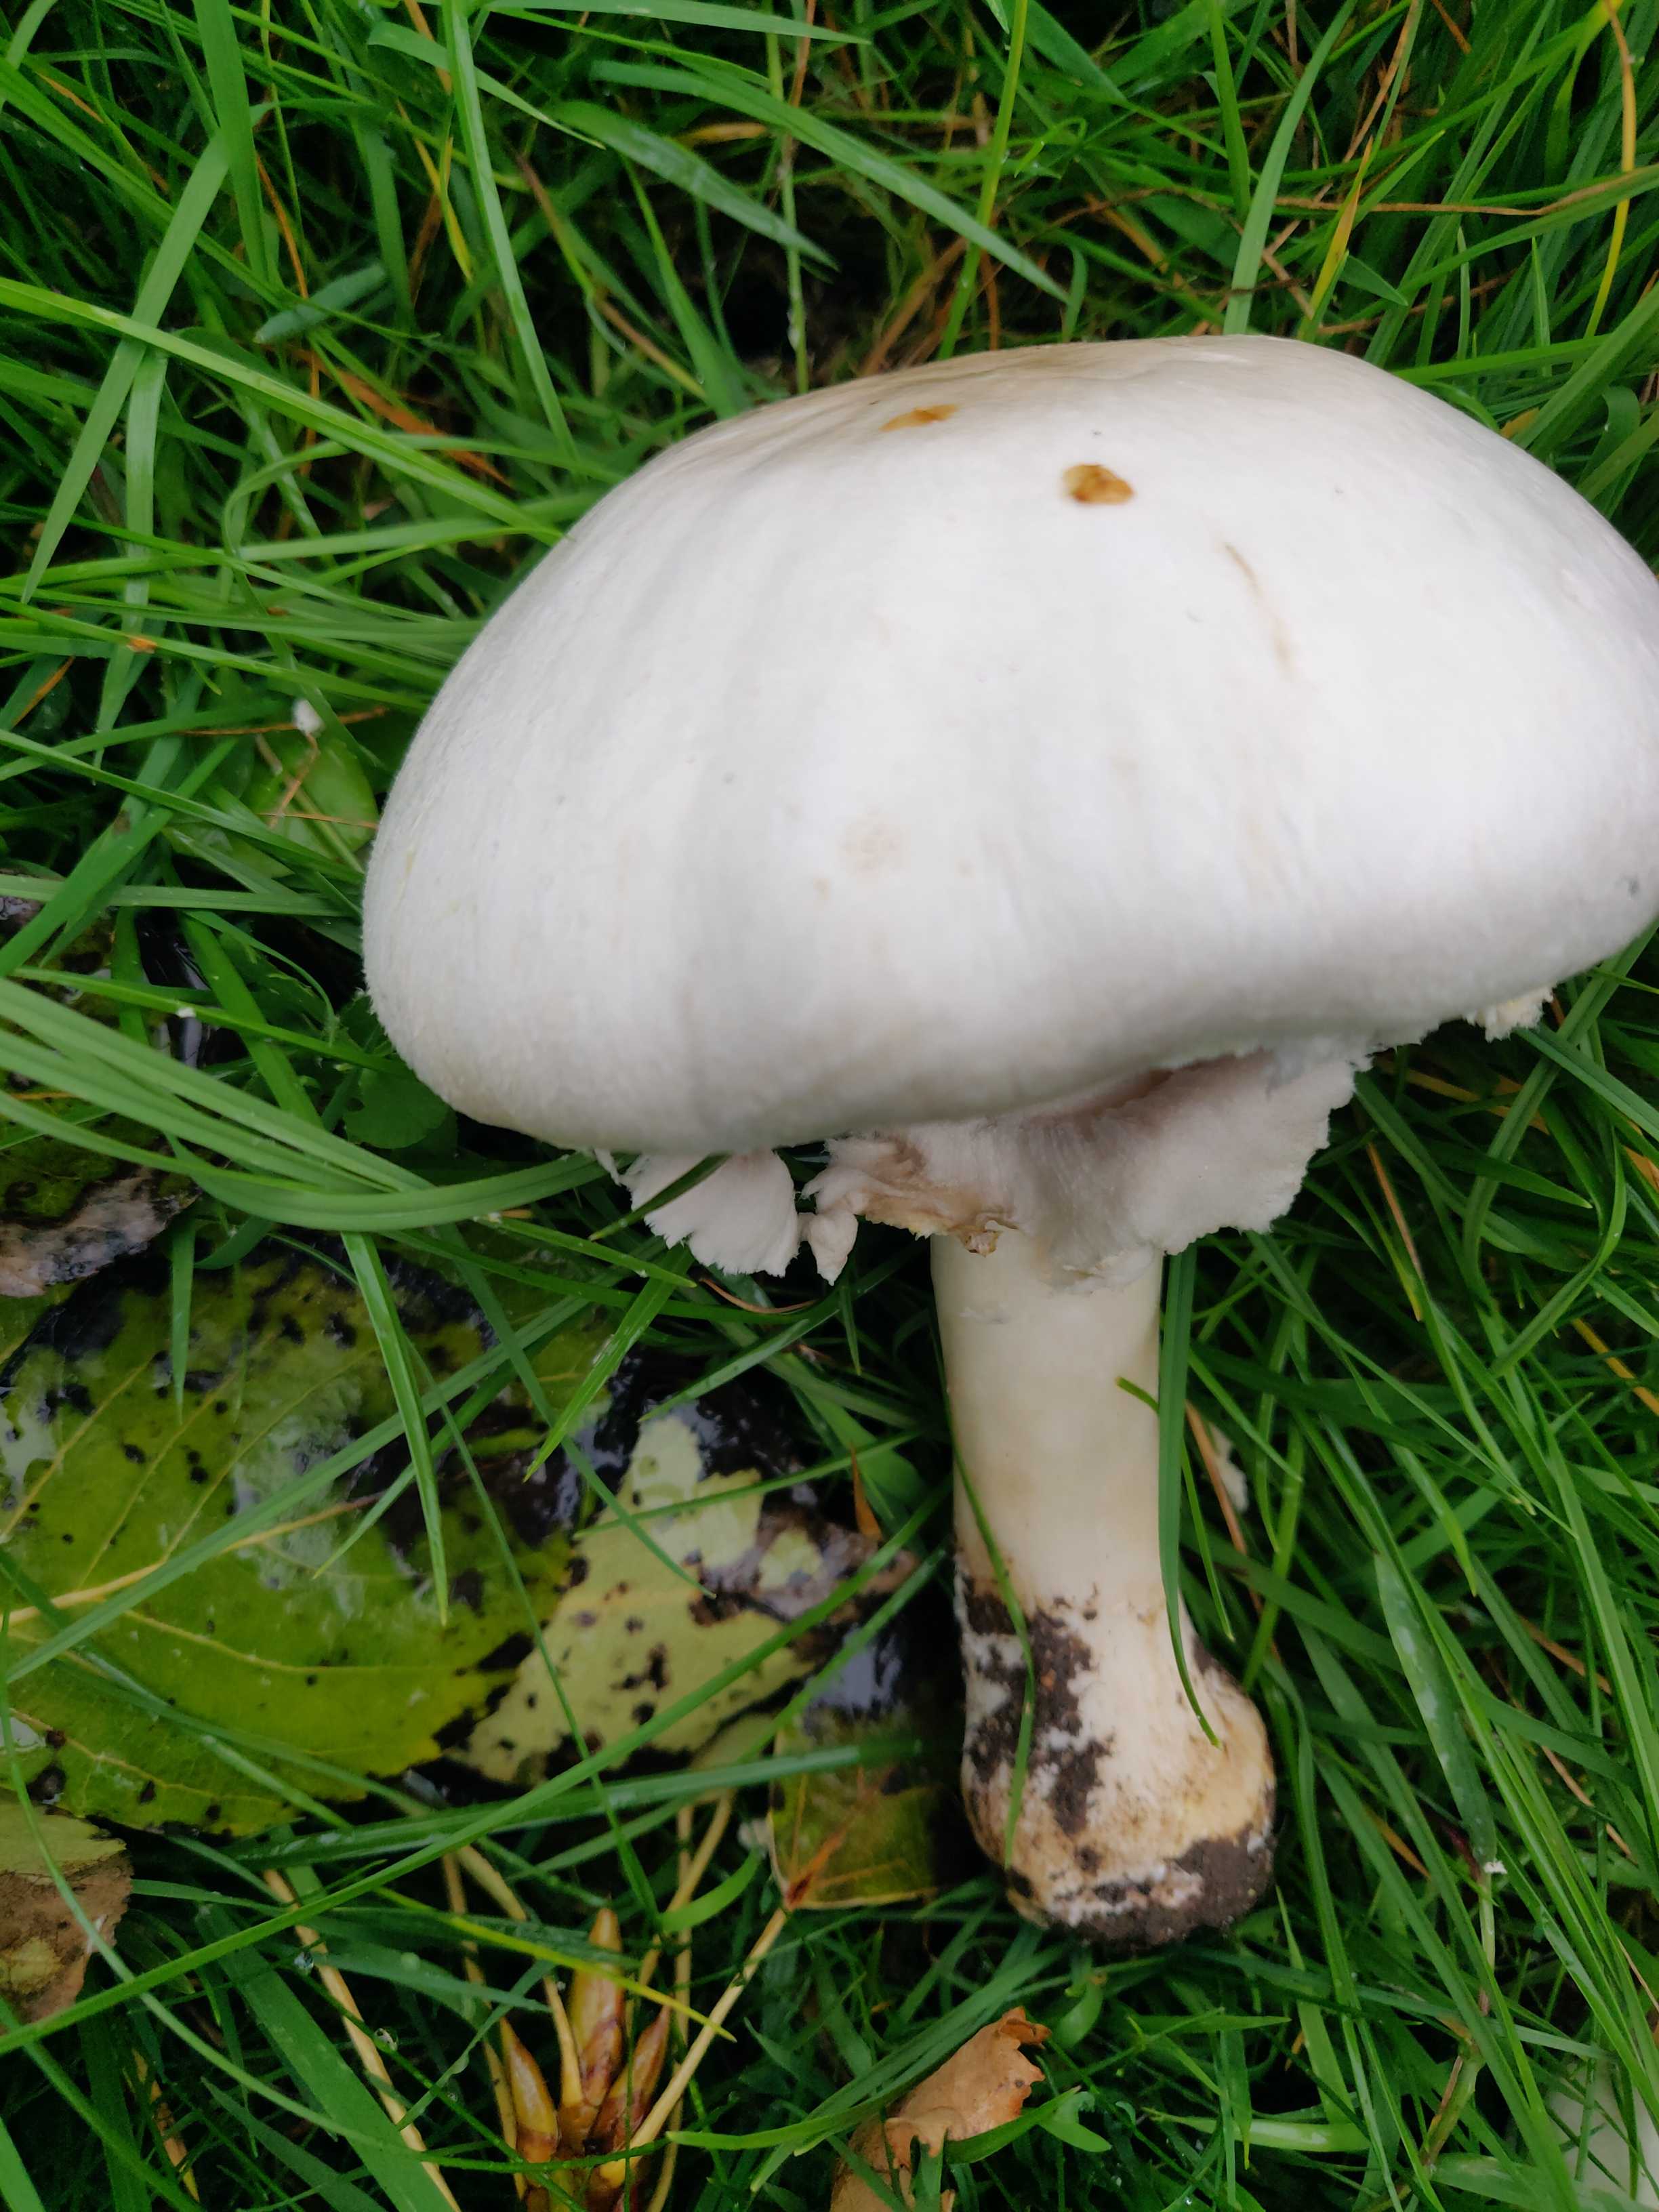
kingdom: Fungi
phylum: Basidiomycota
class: Agaricomycetes
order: Agaricales
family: Agaricaceae
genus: Agaricus
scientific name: Agaricus campestris
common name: mark-champignon
